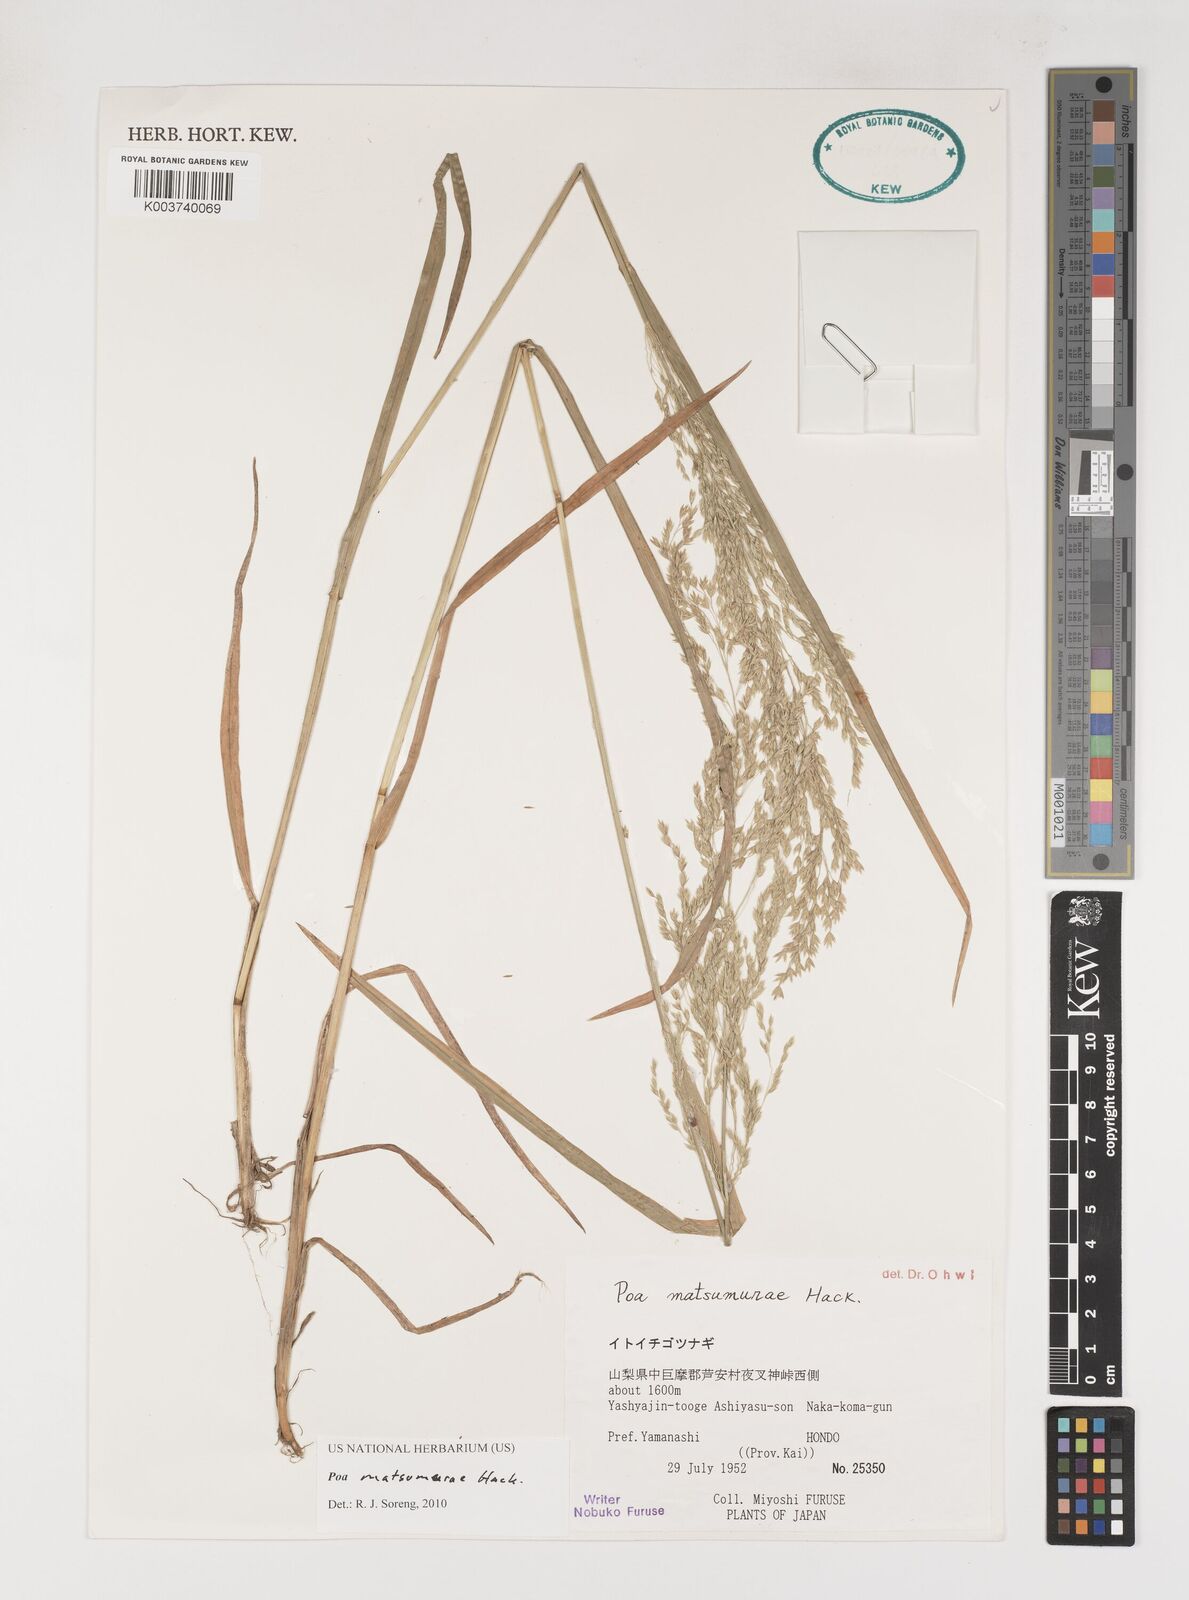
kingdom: Plantae
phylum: Tracheophyta
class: Liliopsida
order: Poales
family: Poaceae
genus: Poa
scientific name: Poa matsumurae
